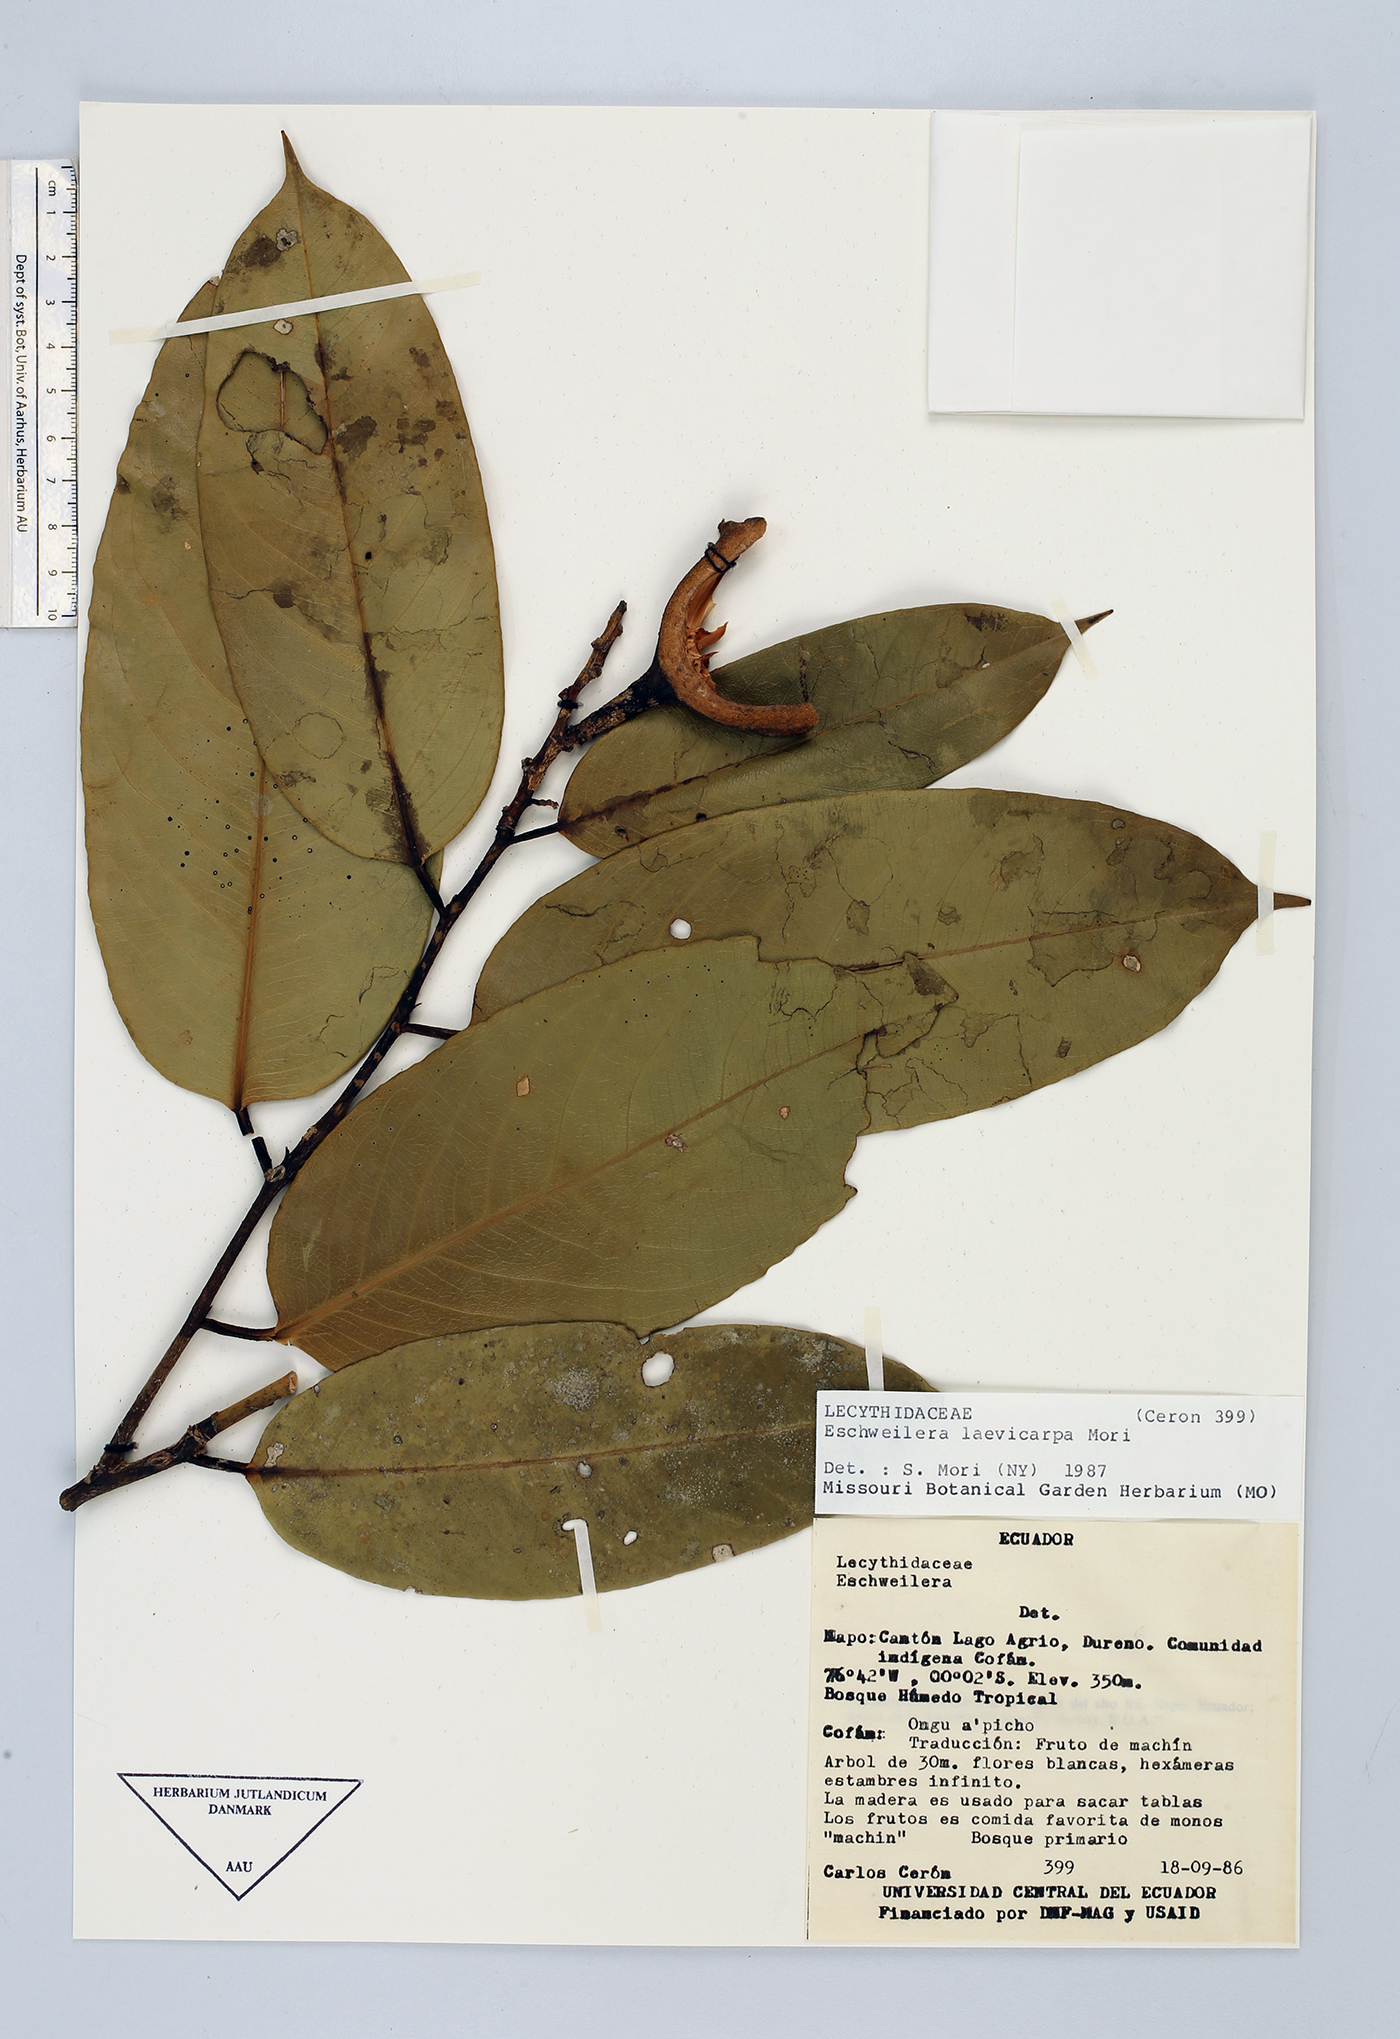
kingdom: Plantae
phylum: Tracheophyta
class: Magnoliopsida
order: Ericales
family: Lecythidaceae
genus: Eschweilera
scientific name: Eschweilera laevicarpa
